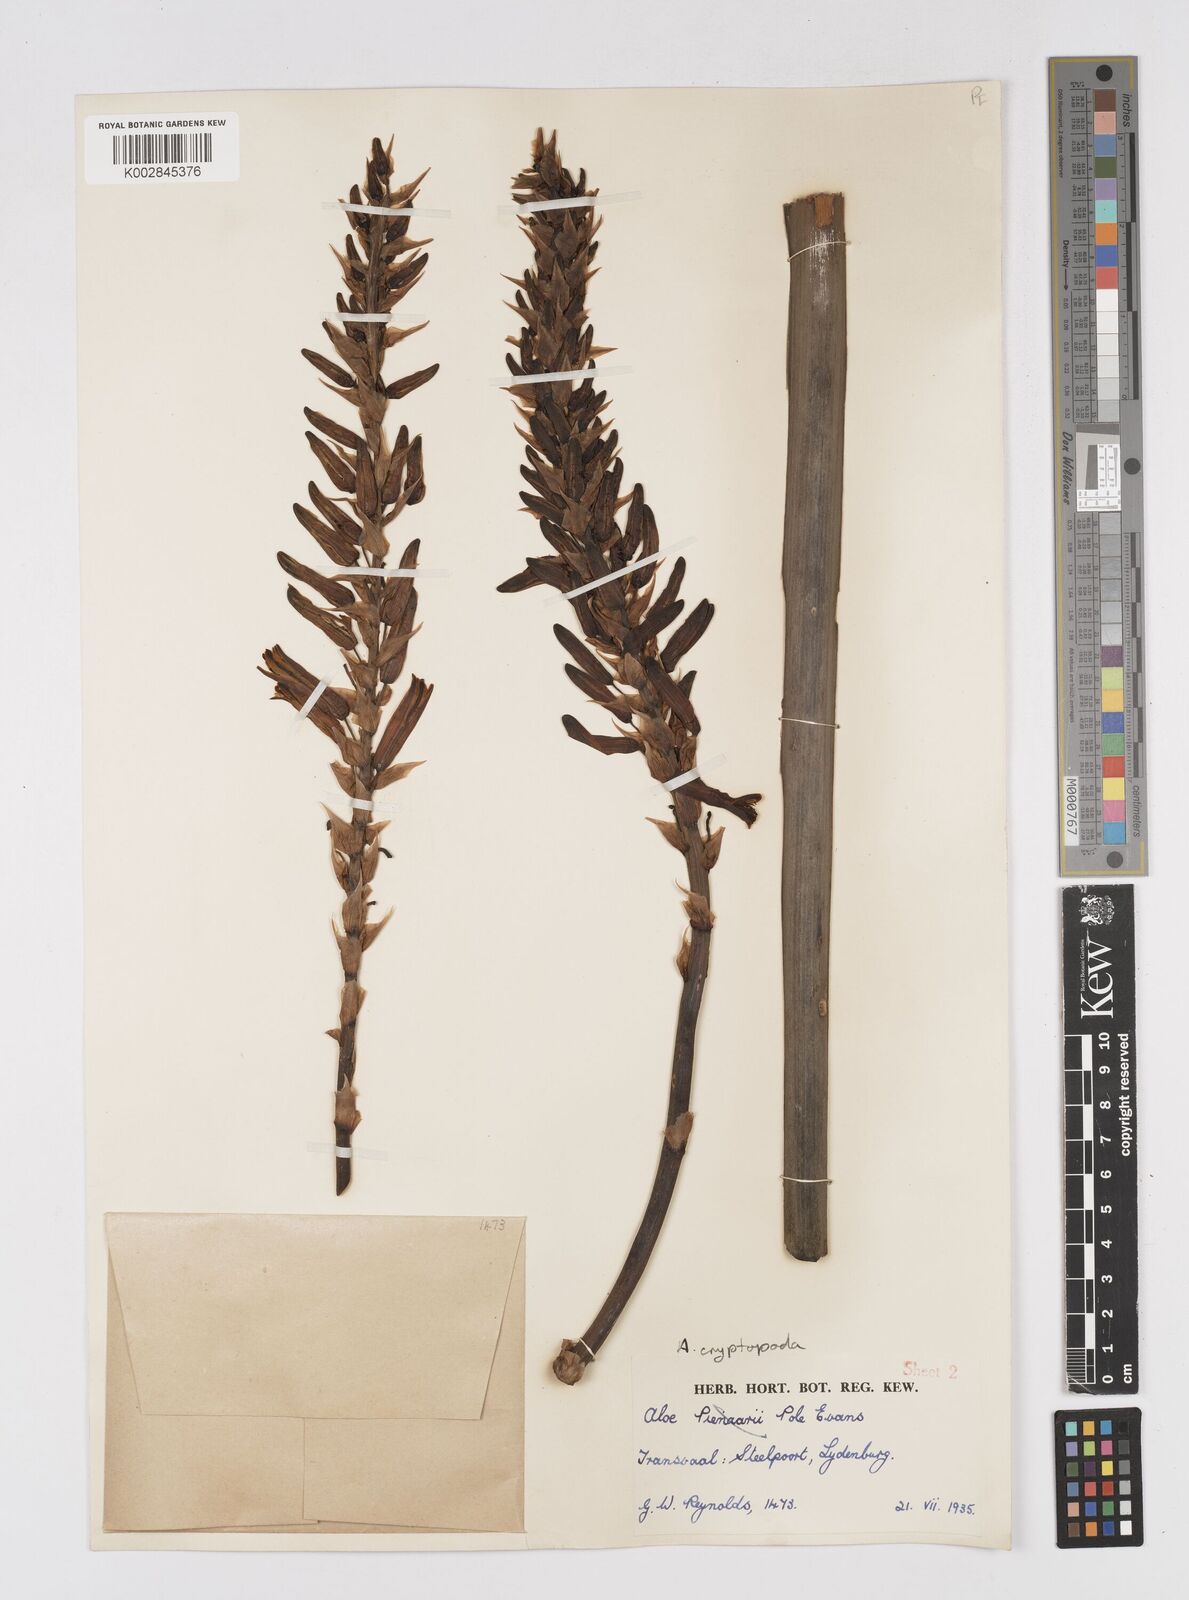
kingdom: Plantae
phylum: Tracheophyta
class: Liliopsida
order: Asparagales
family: Asphodelaceae
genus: Aloe
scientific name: Aloe cryptopoda
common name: Dr. kirk's aloe
